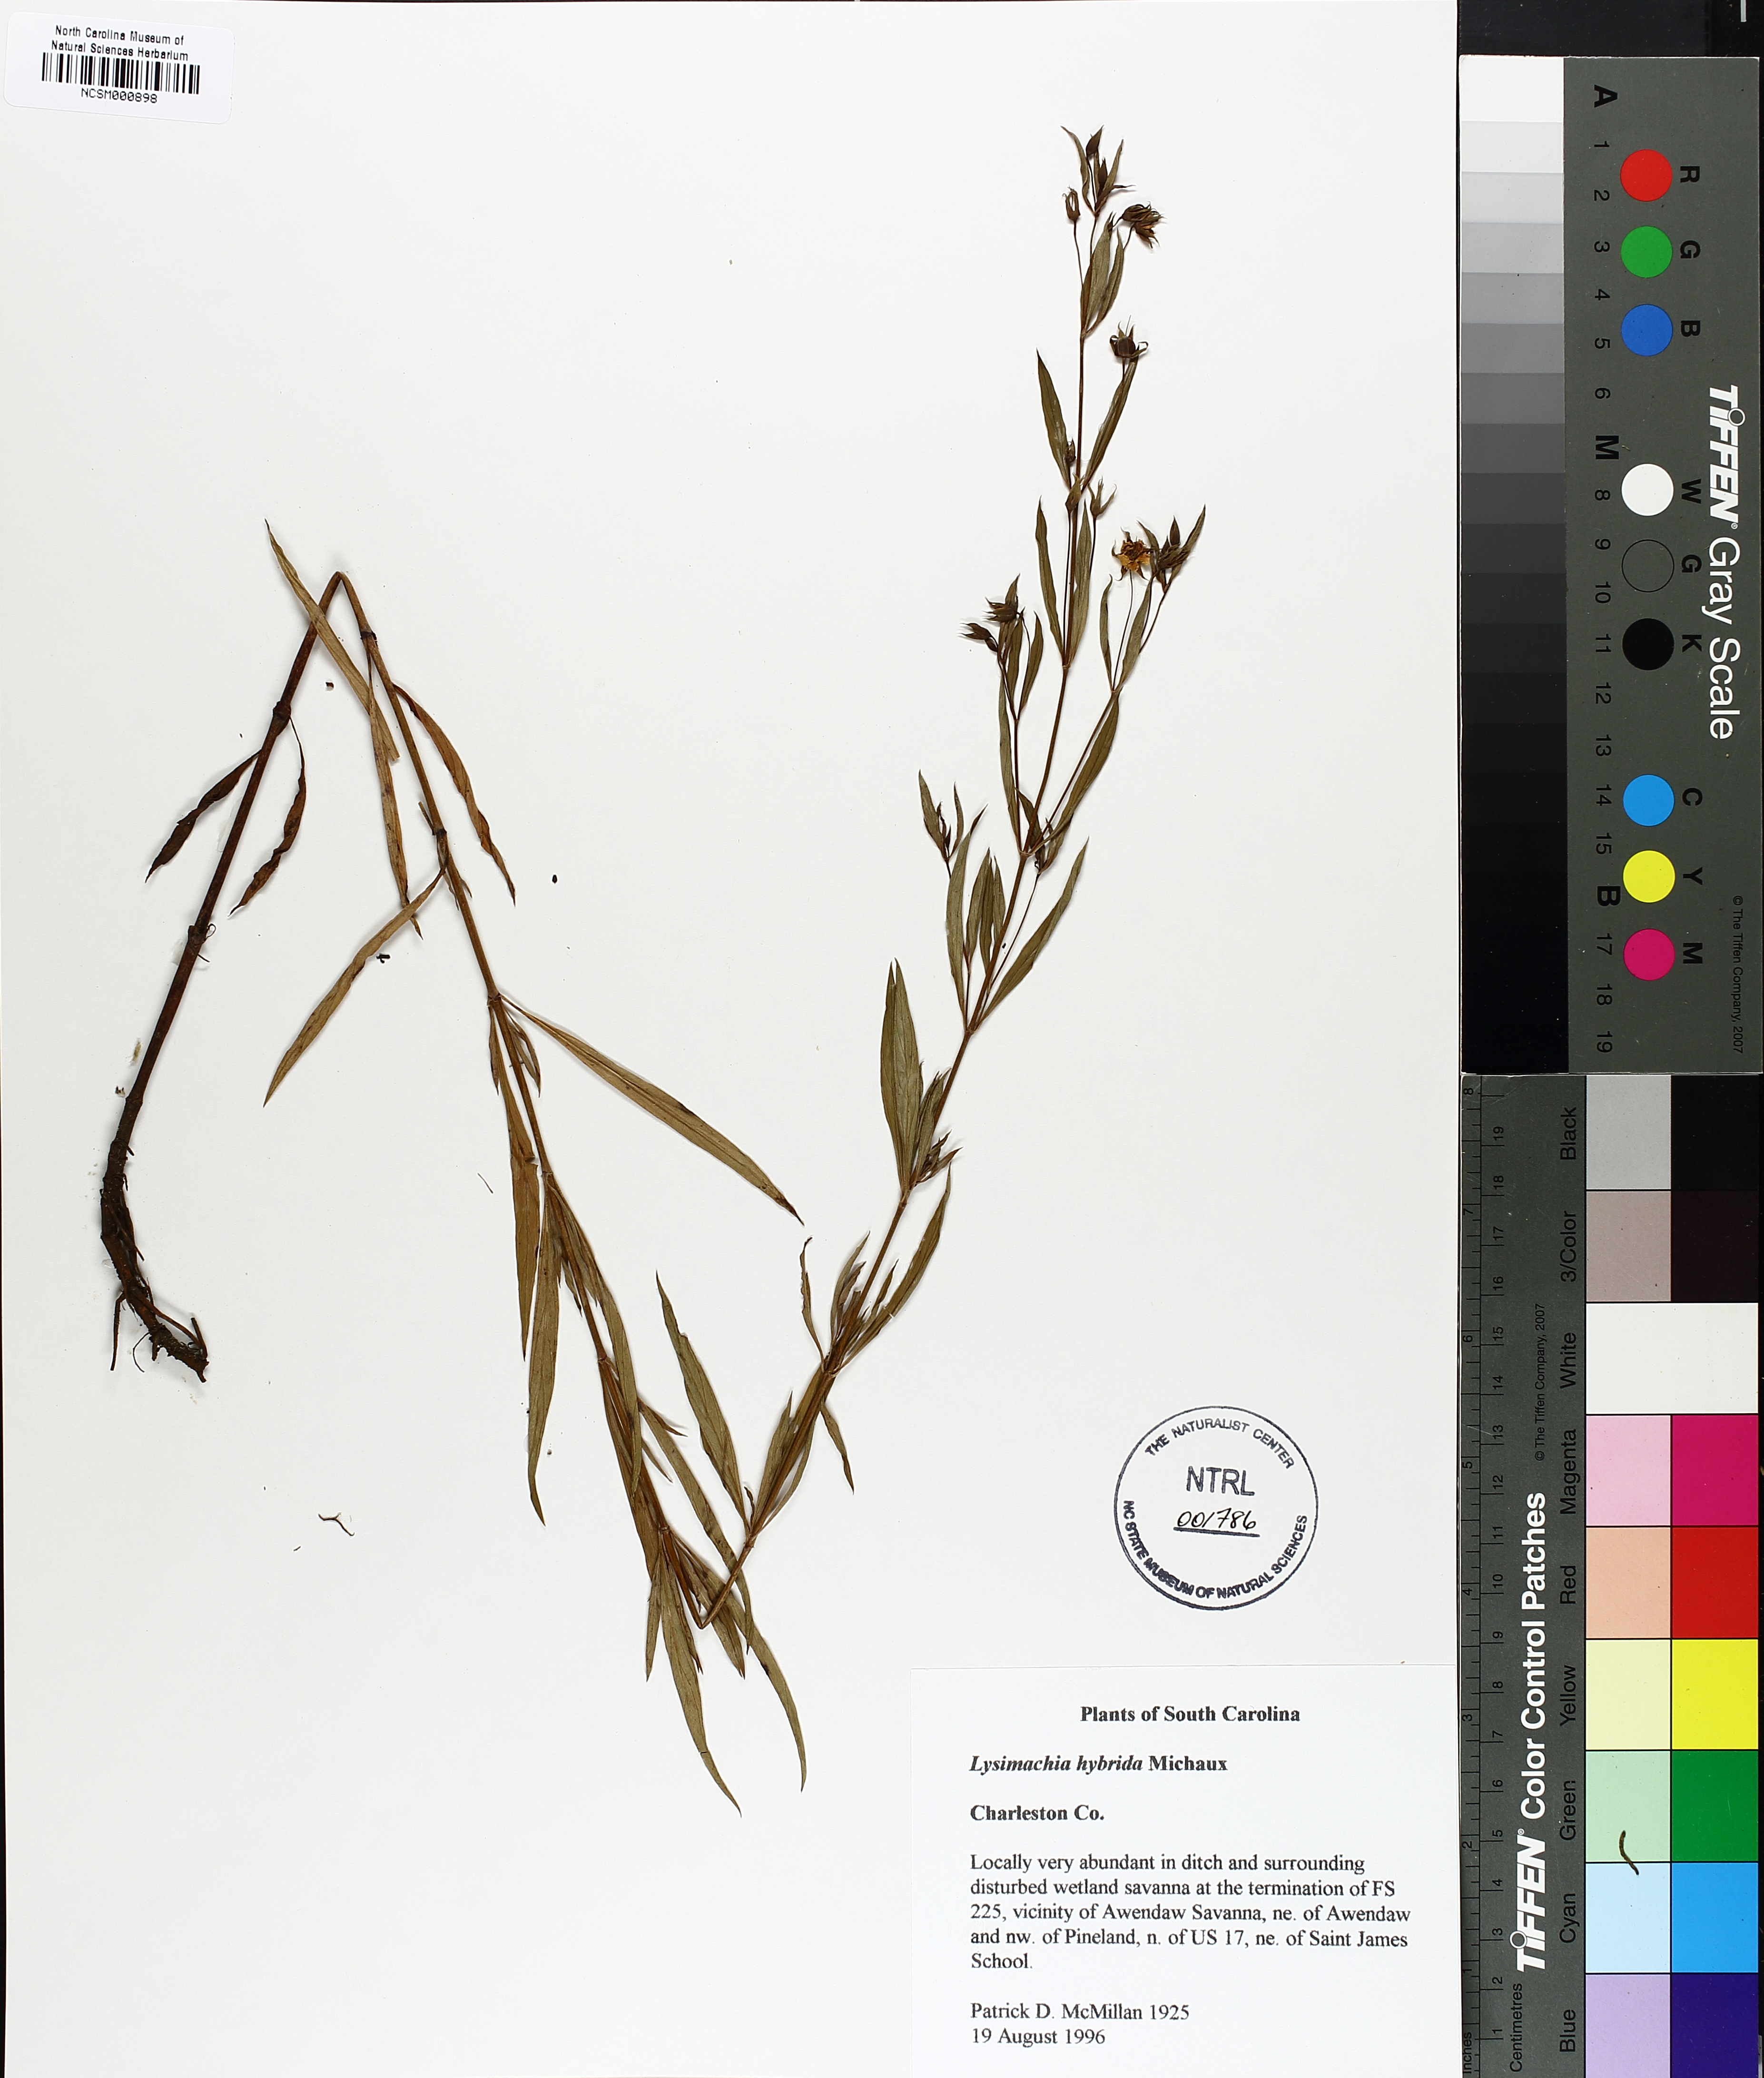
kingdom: Plantae
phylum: Tracheophyta
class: Magnoliopsida
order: Ericales
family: Primulaceae
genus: Lysimachia
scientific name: Lysimachia hybrida
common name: Lowland loosestrife
